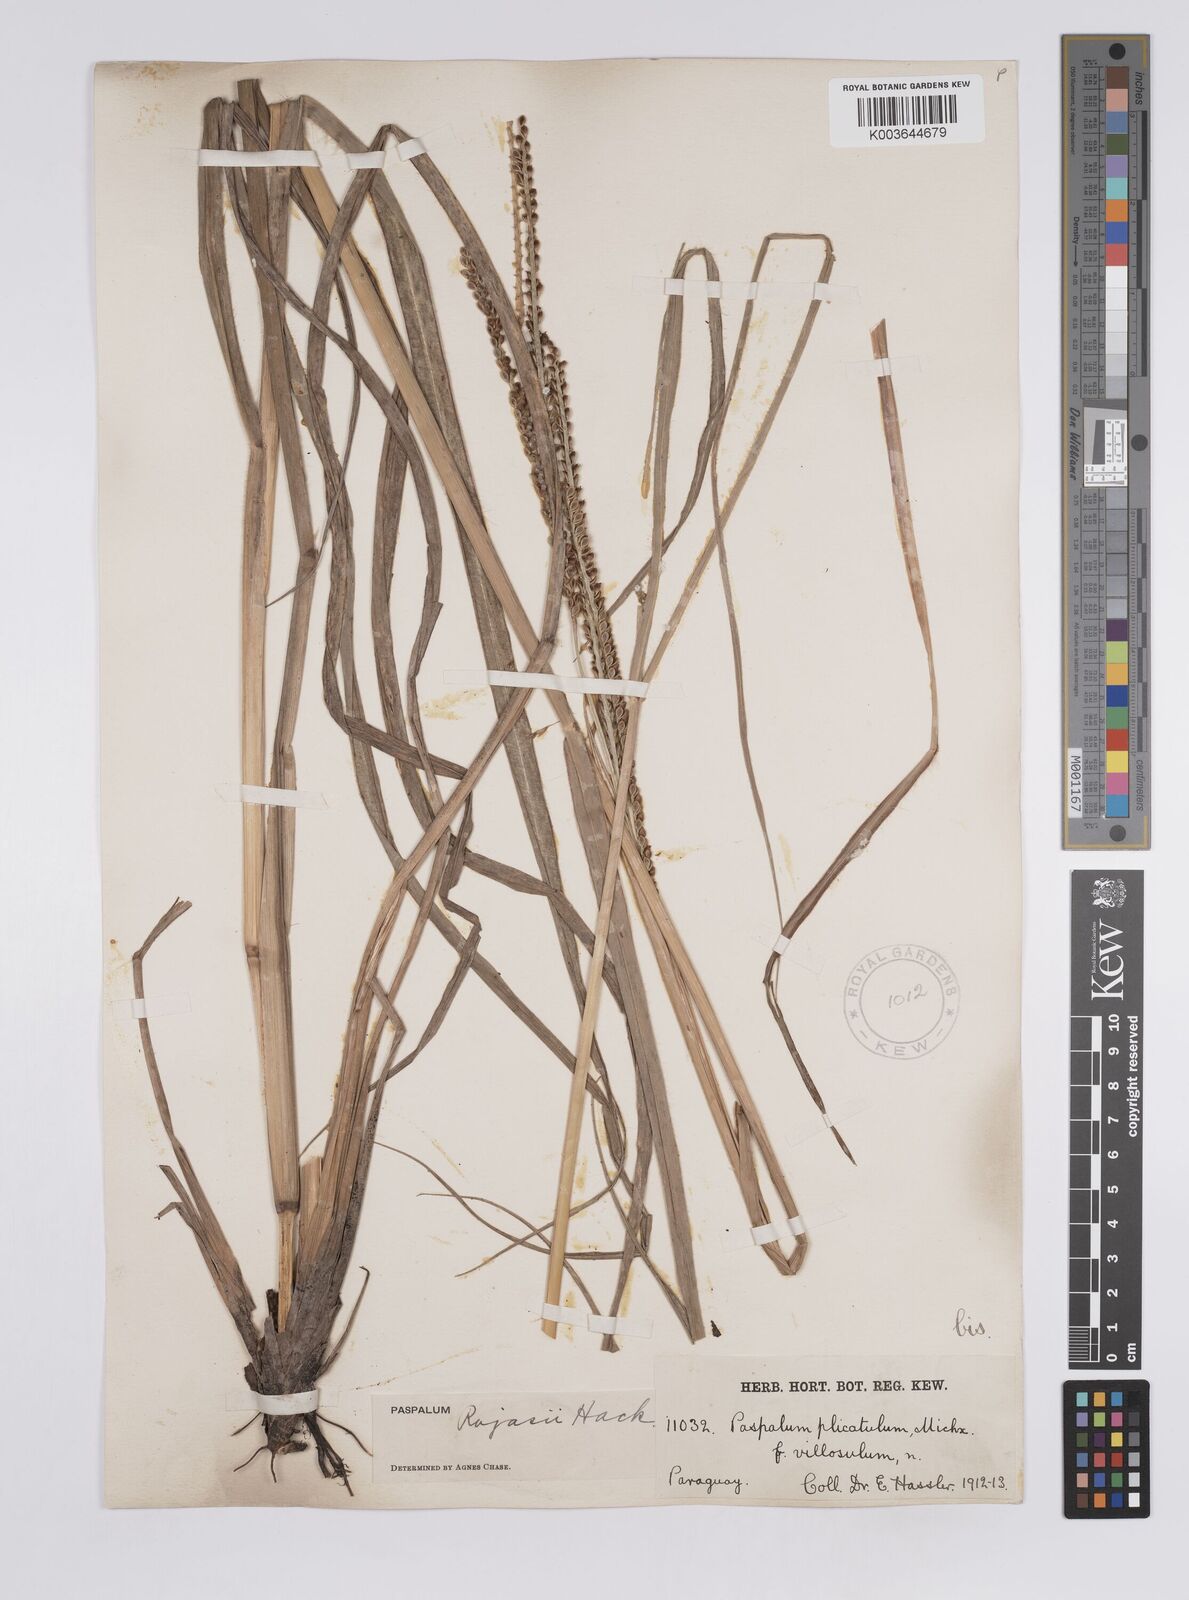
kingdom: Plantae
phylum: Tracheophyta
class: Liliopsida
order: Poales
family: Poaceae
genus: Paspalum
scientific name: Paspalum guenoarum
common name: Wintergreen paspalum
